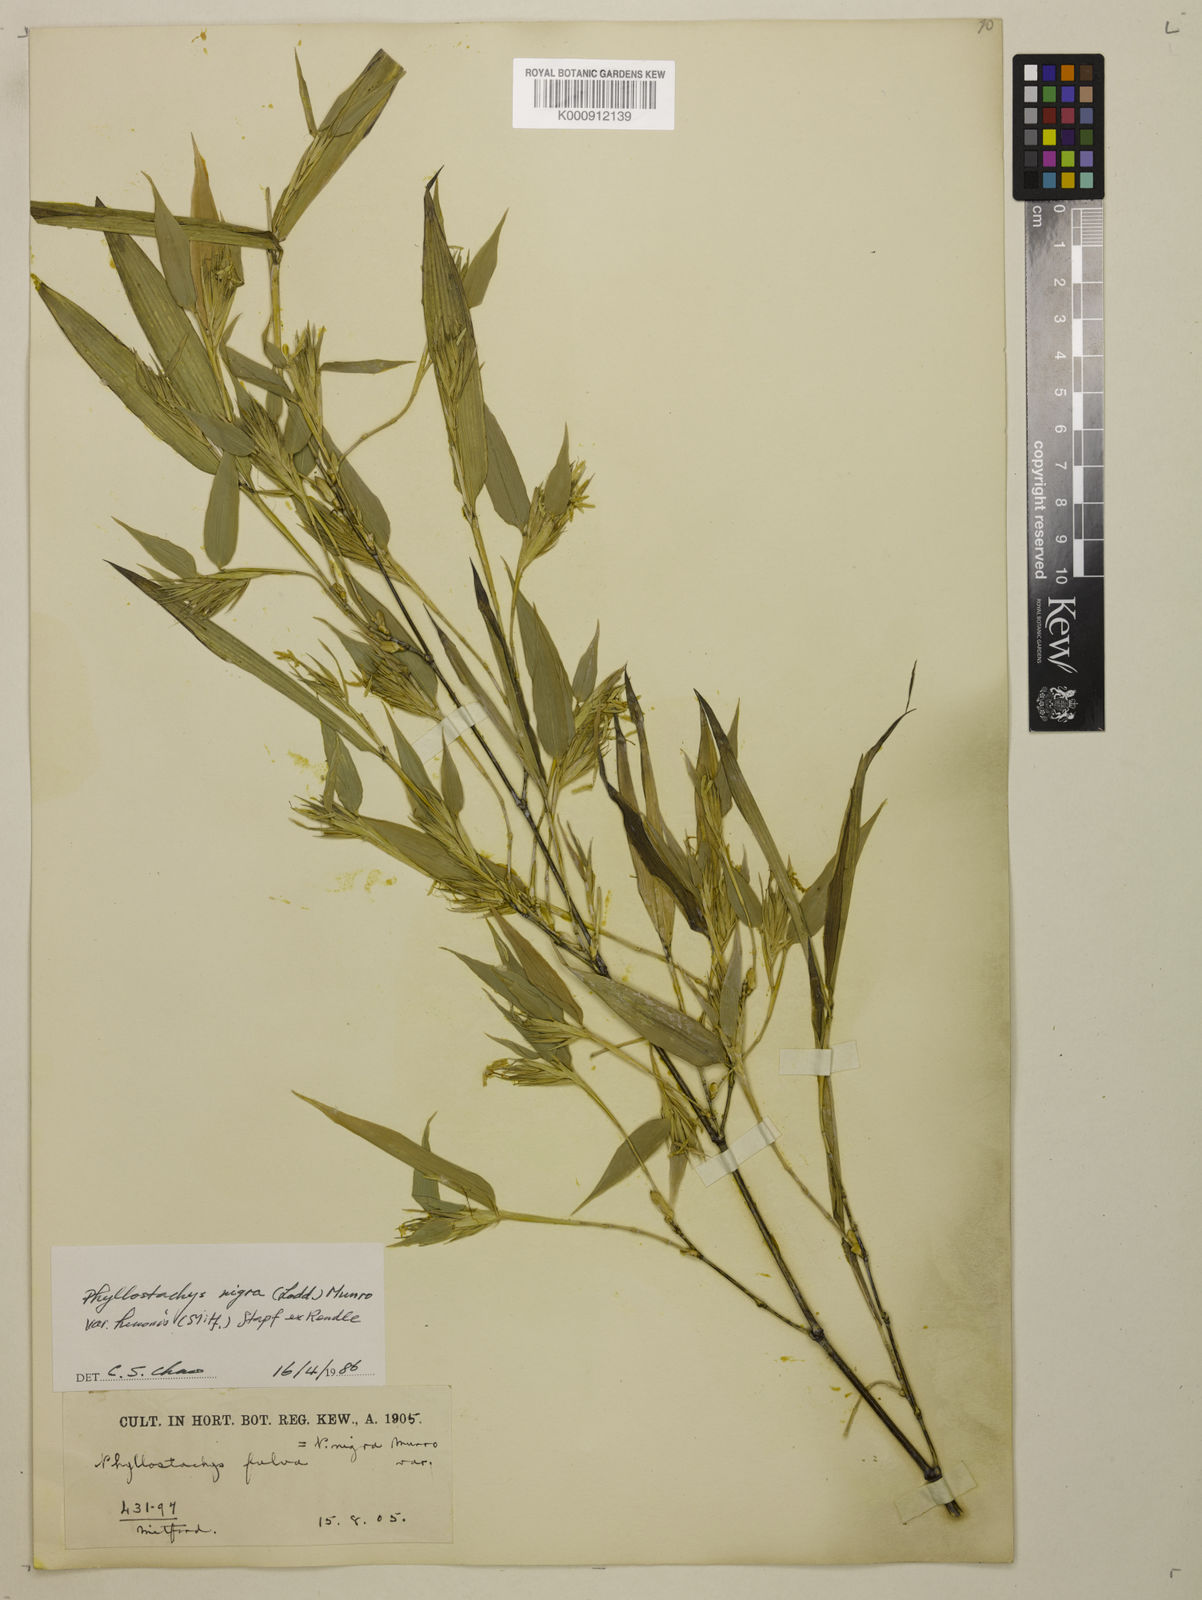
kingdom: Plantae
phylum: Tracheophyta
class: Liliopsida
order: Poales
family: Poaceae
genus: Phyllostachys
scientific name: Phyllostachys nigra
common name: Black bamboo
